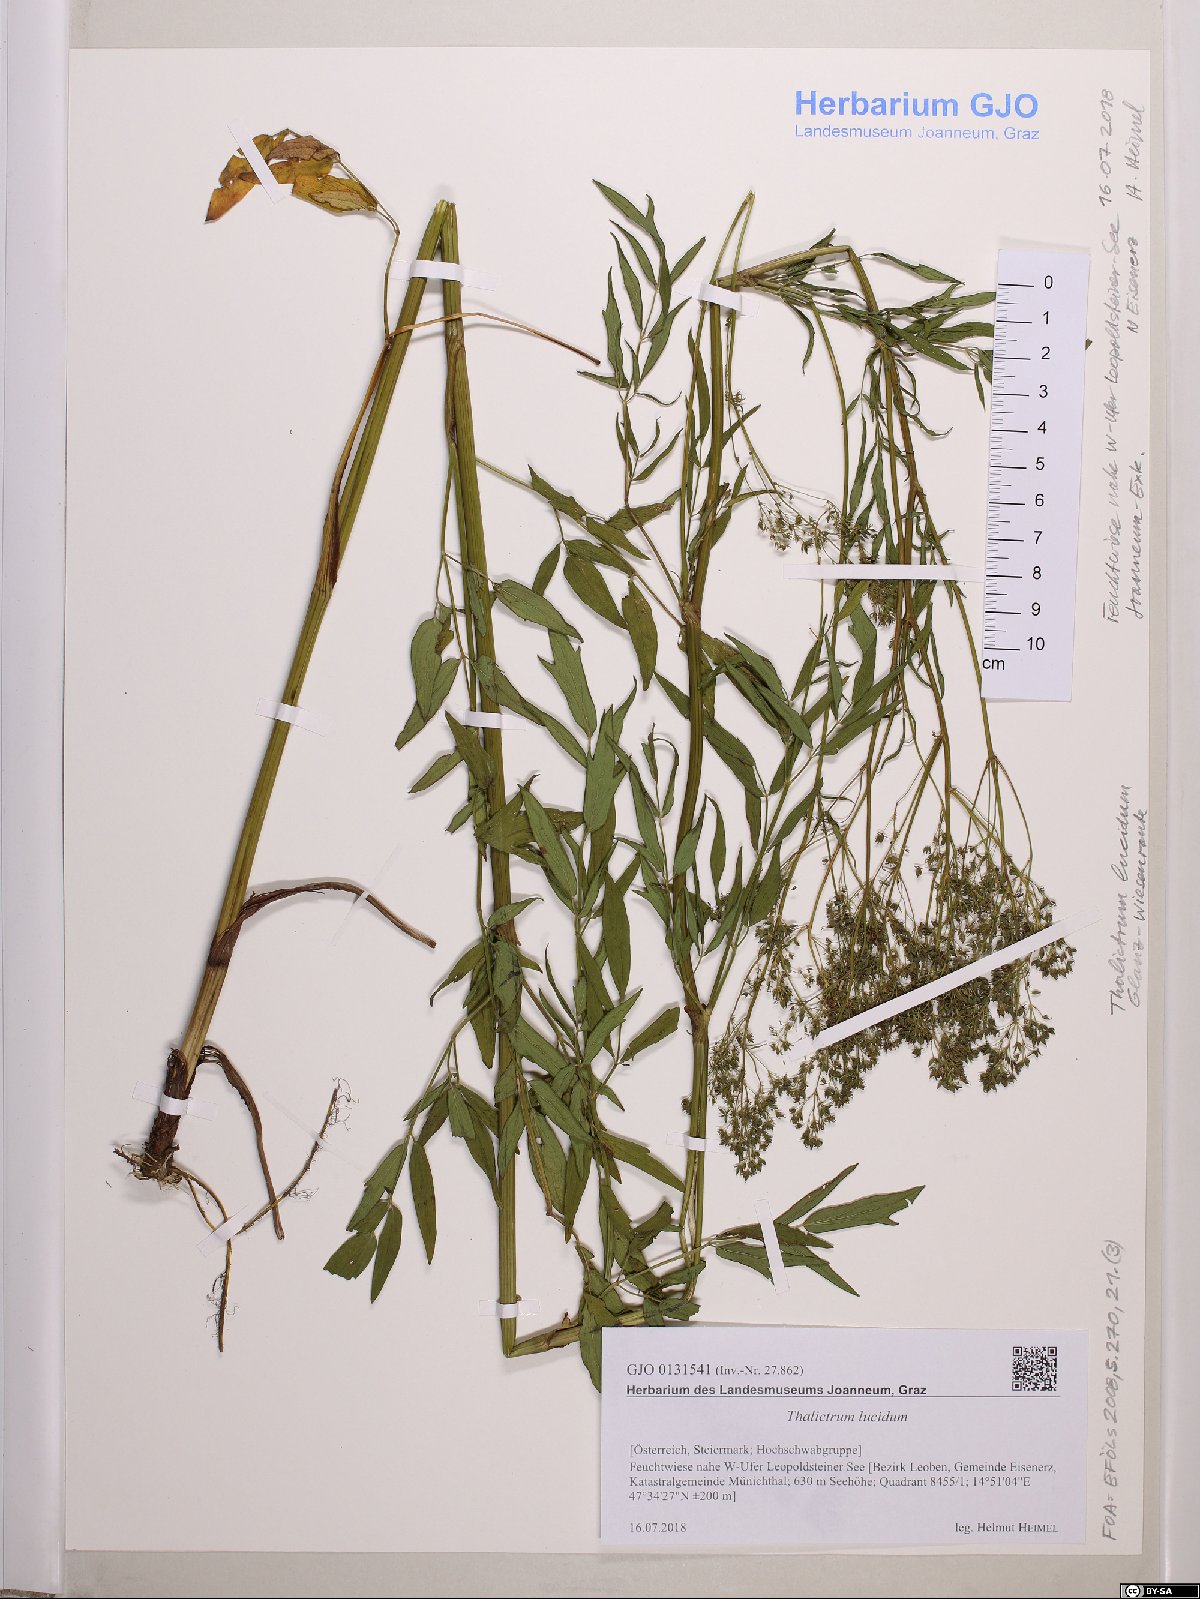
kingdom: Plantae
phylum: Tracheophyta
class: Magnoliopsida
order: Ranunculales
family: Ranunculaceae
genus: Thalictrum
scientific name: Thalictrum lucidum
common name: Shining meadow-rue
